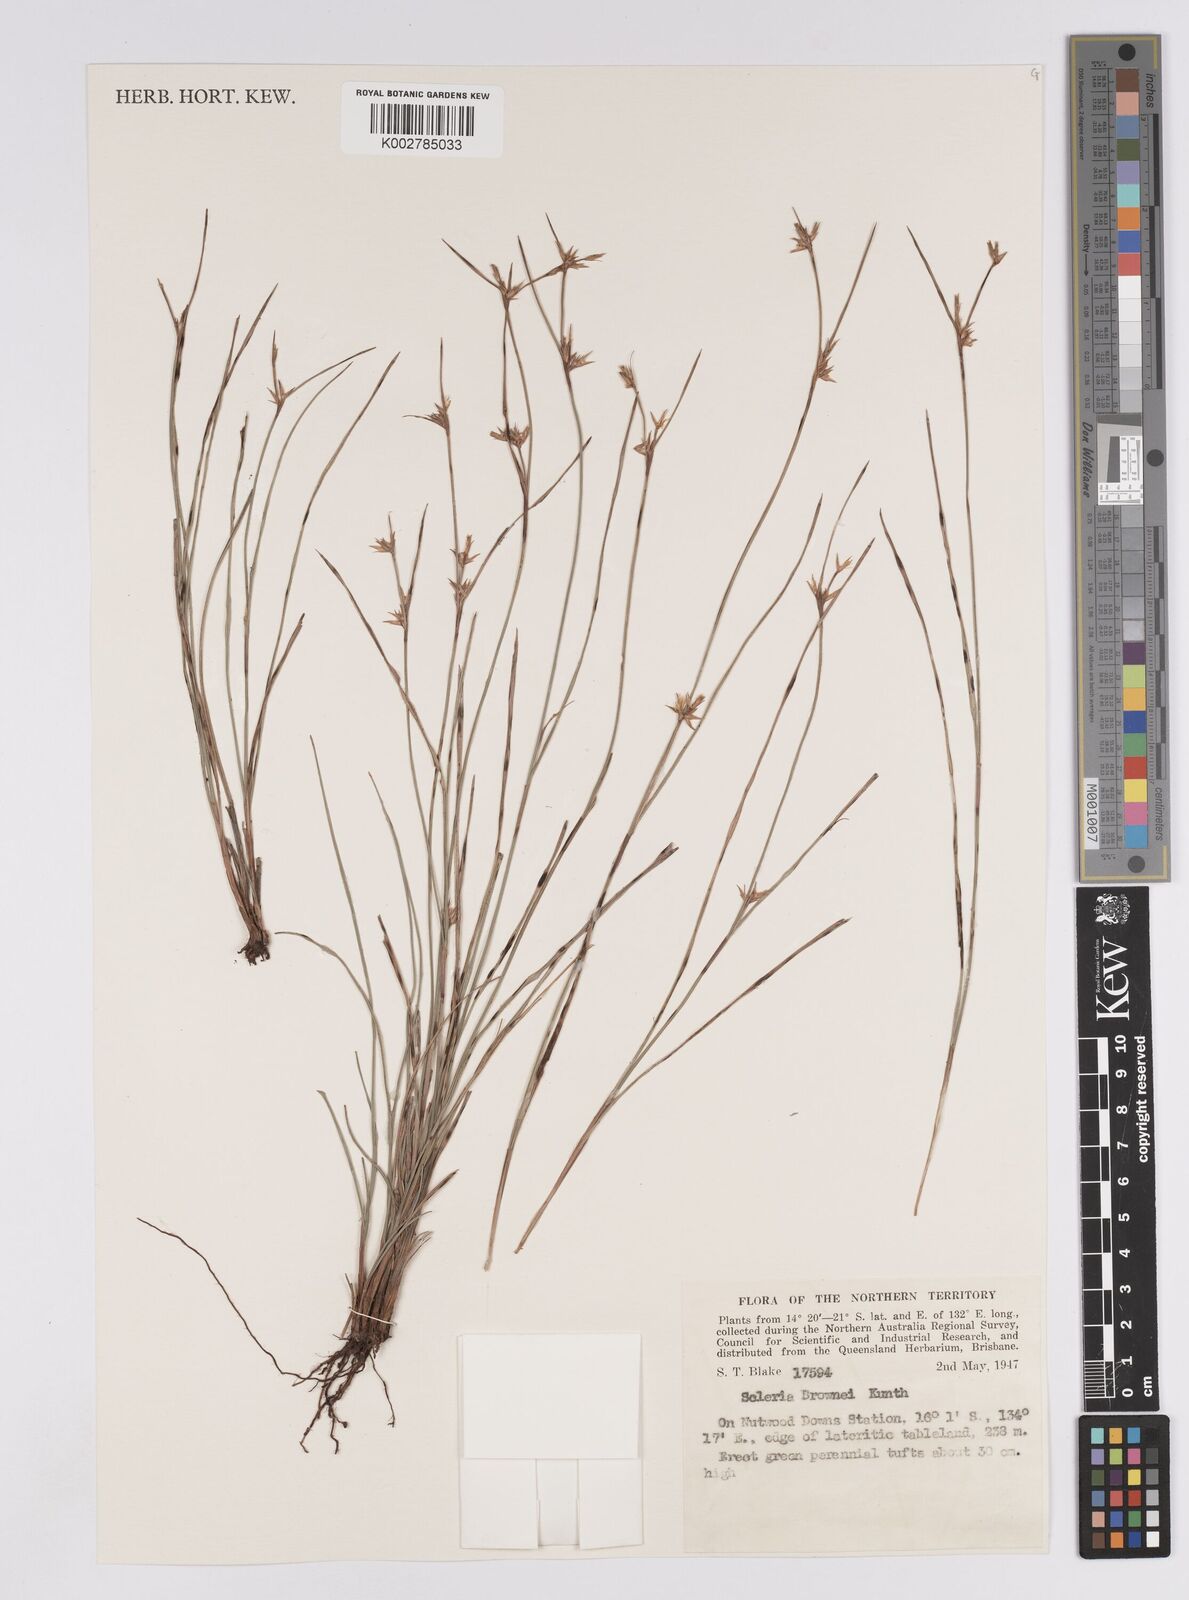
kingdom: Plantae
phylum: Tracheophyta
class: Liliopsida
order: Poales
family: Cyperaceae
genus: Scleria
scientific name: Scleria brownii
